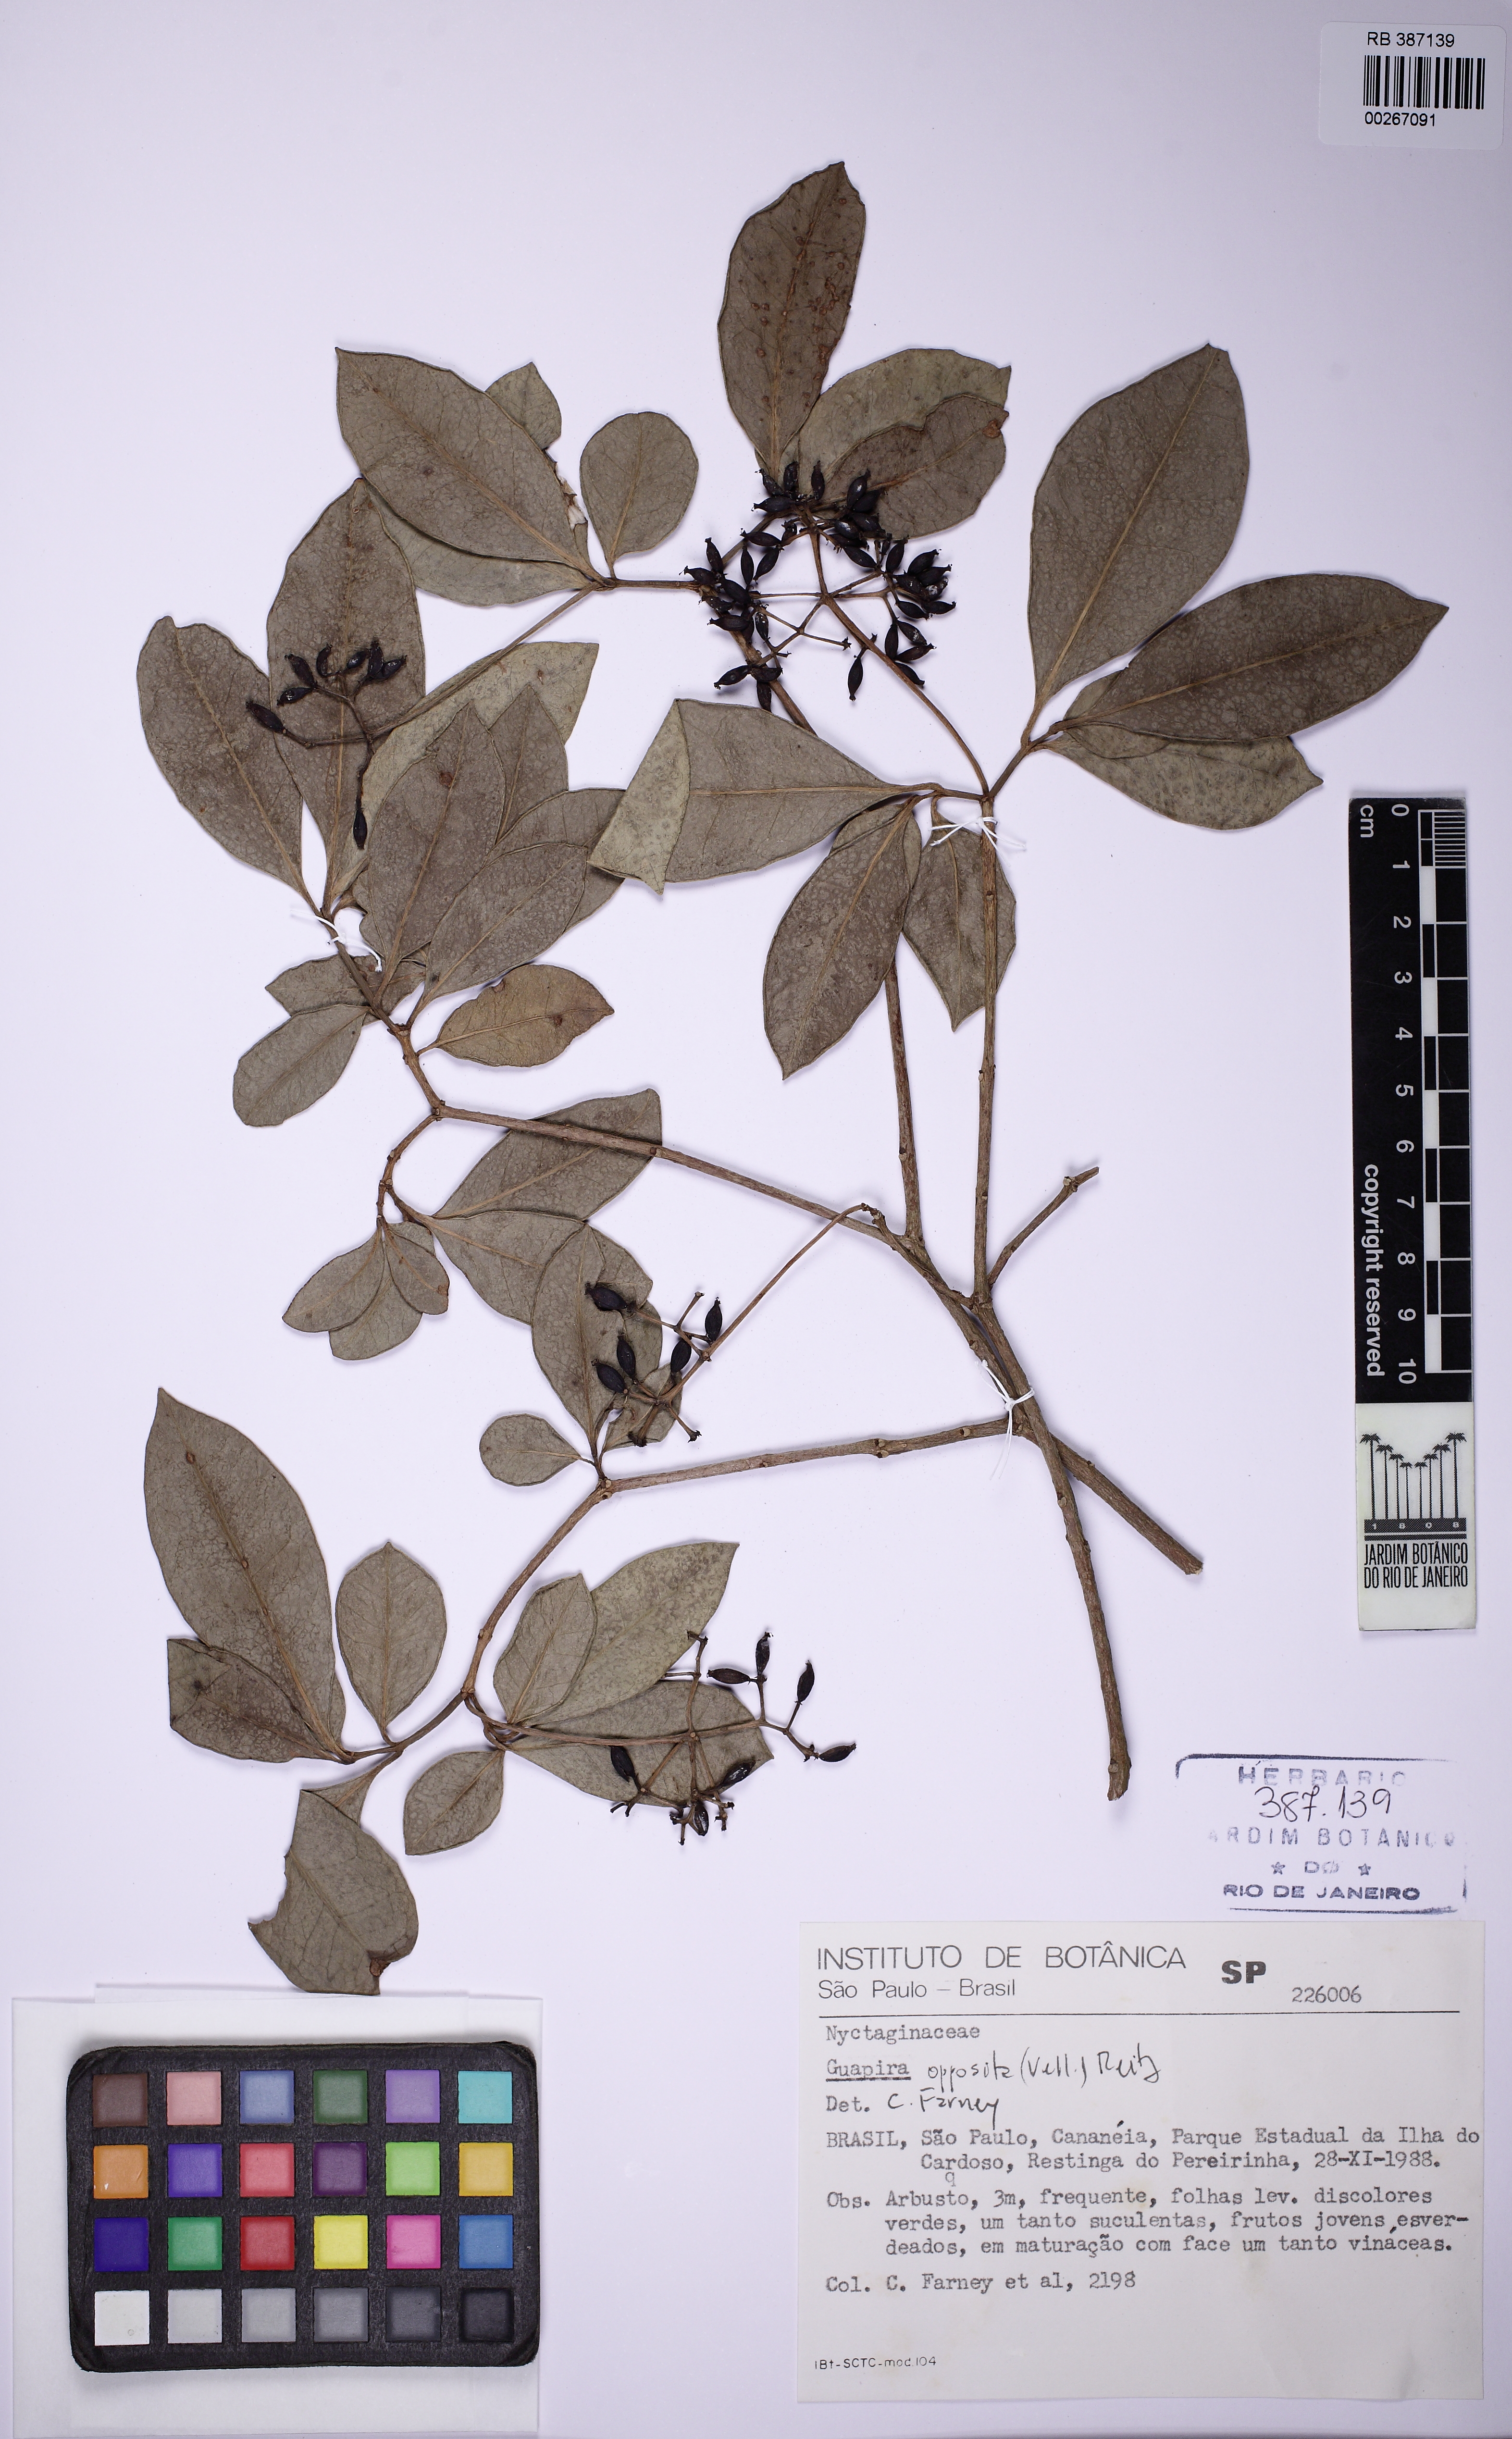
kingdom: Plantae
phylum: Tracheophyta
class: Magnoliopsida
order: Caryophyllales
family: Nyctaginaceae
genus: Guapira
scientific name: Guapira opposita
